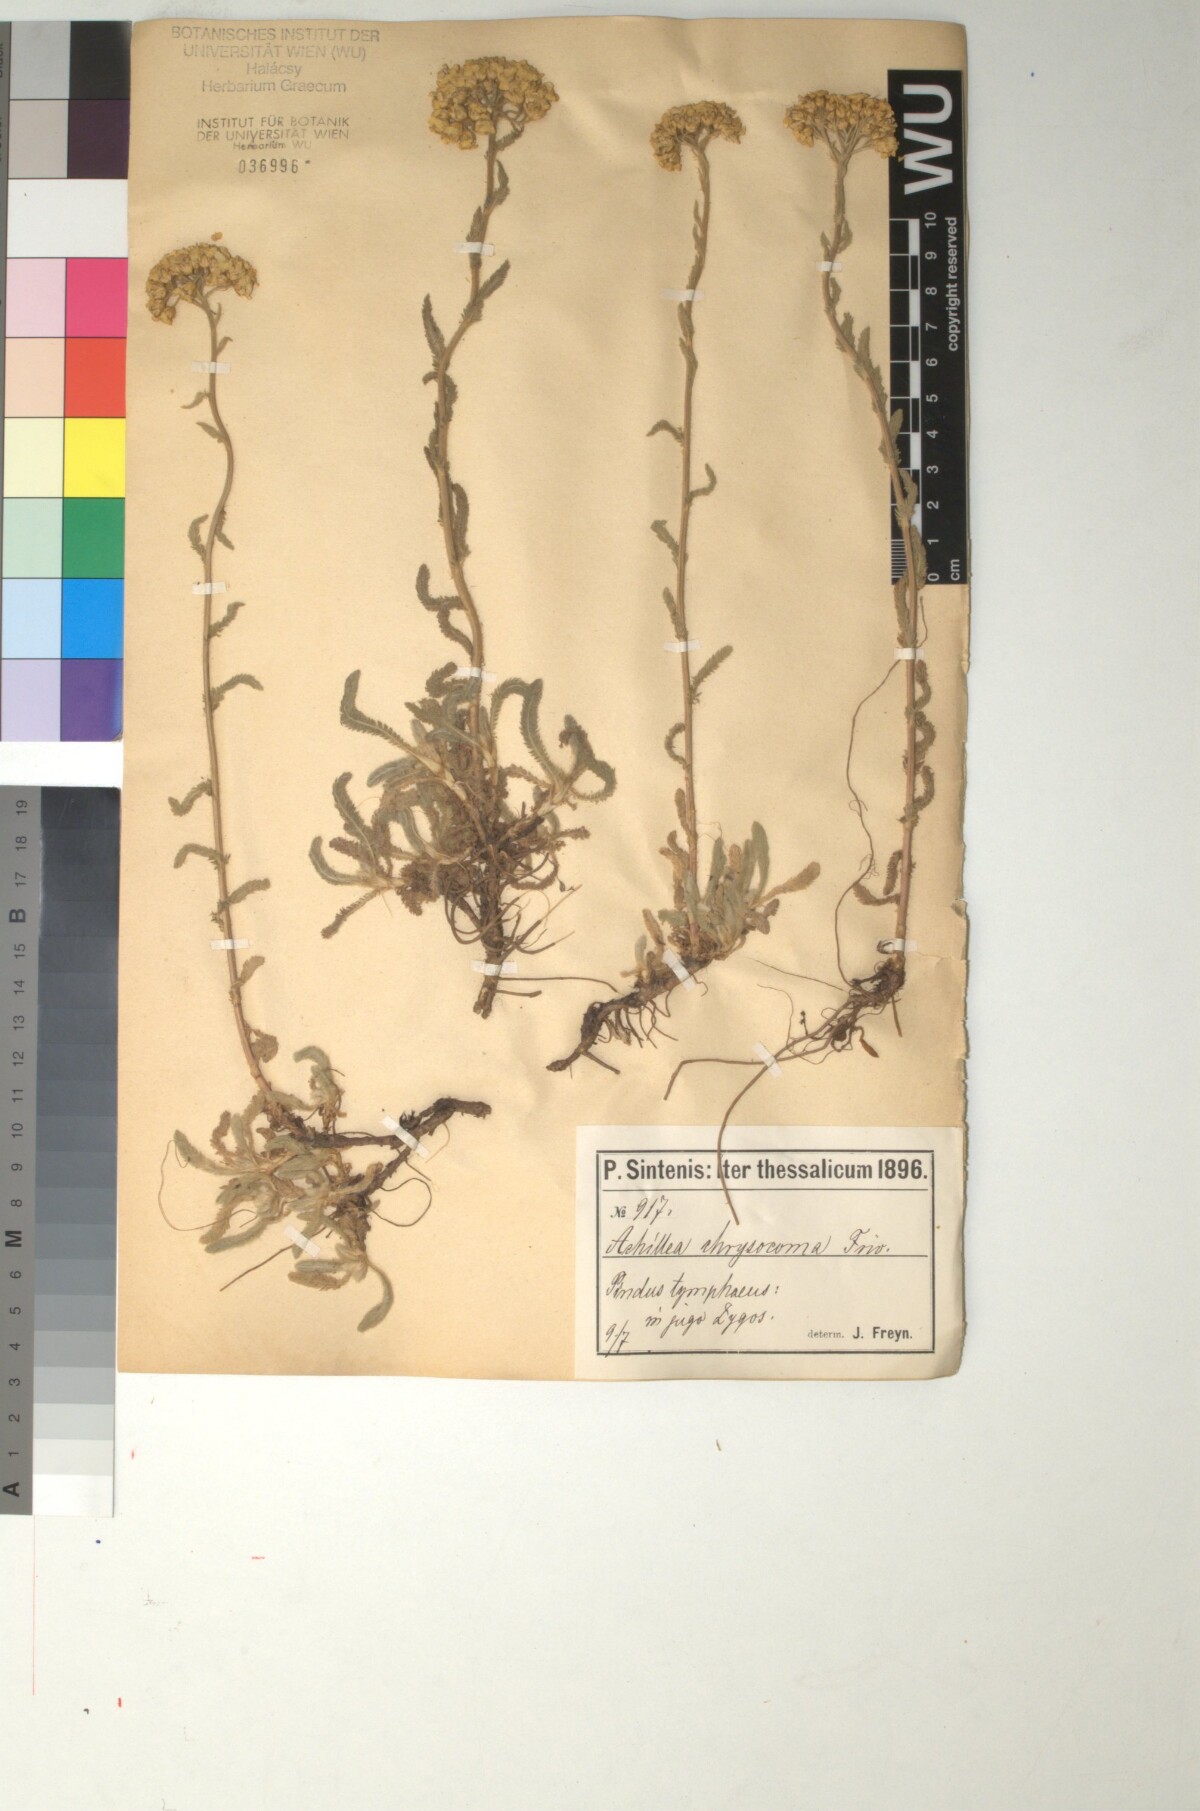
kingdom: Plantae
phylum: Tracheophyta
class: Magnoliopsida
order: Asterales
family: Asteraceae
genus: Achillea
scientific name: Achillea chrysocoma
